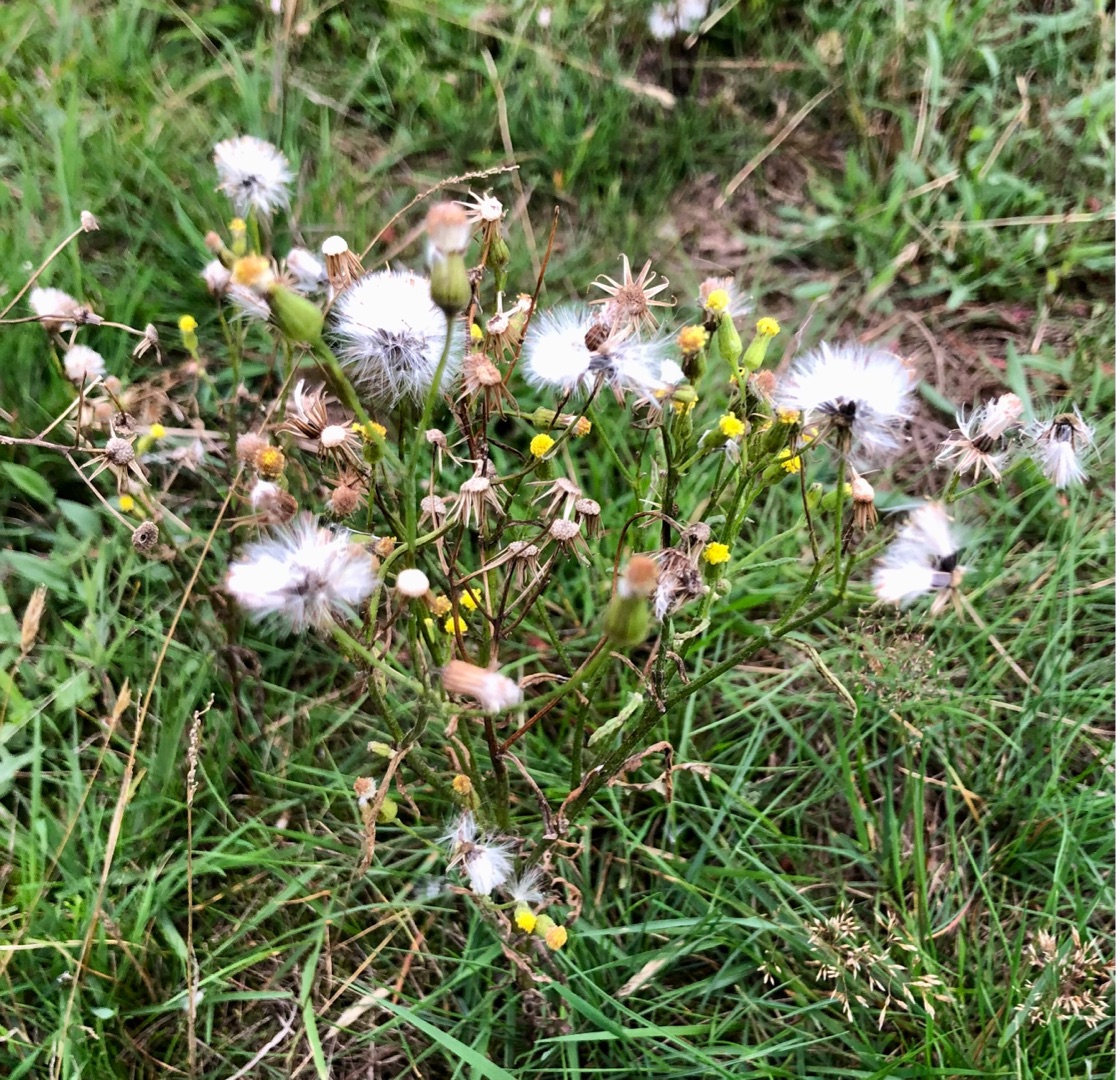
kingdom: Plantae
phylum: Tracheophyta
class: Magnoliopsida
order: Asterales
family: Asteraceae
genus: Senecio
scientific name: Senecio sylvaticus
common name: Skov-brandbæger
